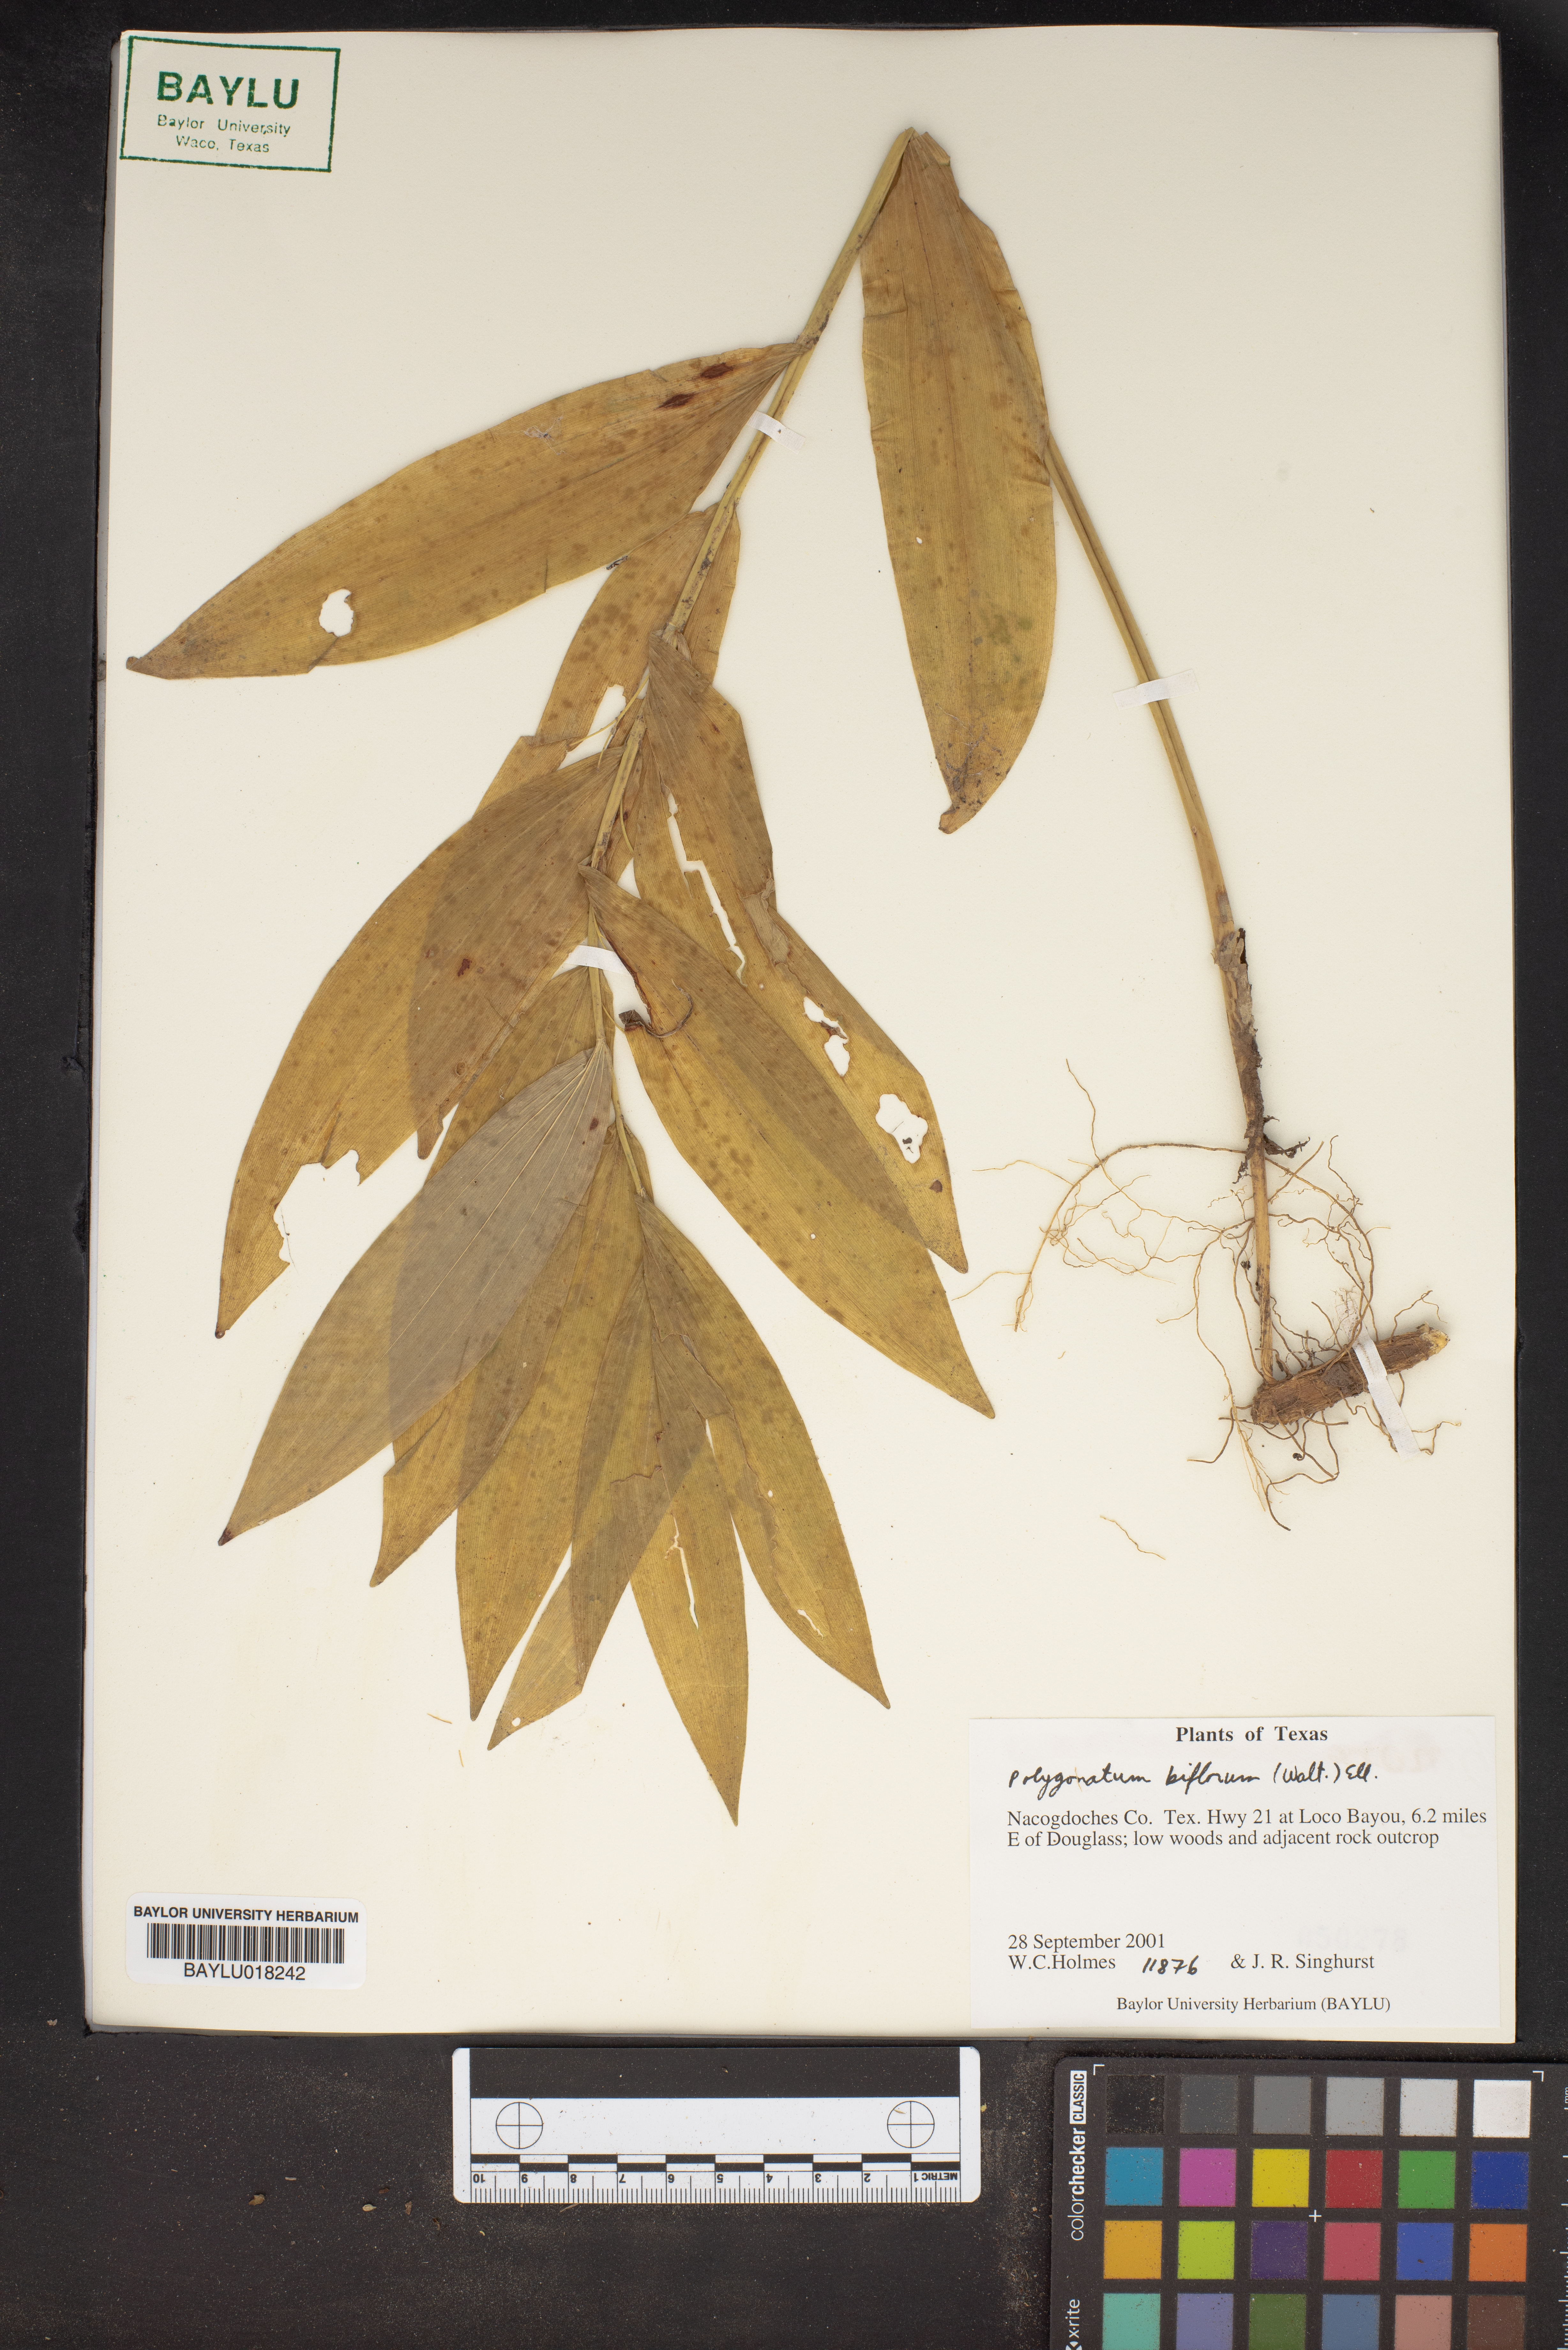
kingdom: Plantae
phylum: Tracheophyta
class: Liliopsida
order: Asparagales
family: Asparagaceae
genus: Polygonatum
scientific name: Polygonatum biflorum
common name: American solomon's-seal
